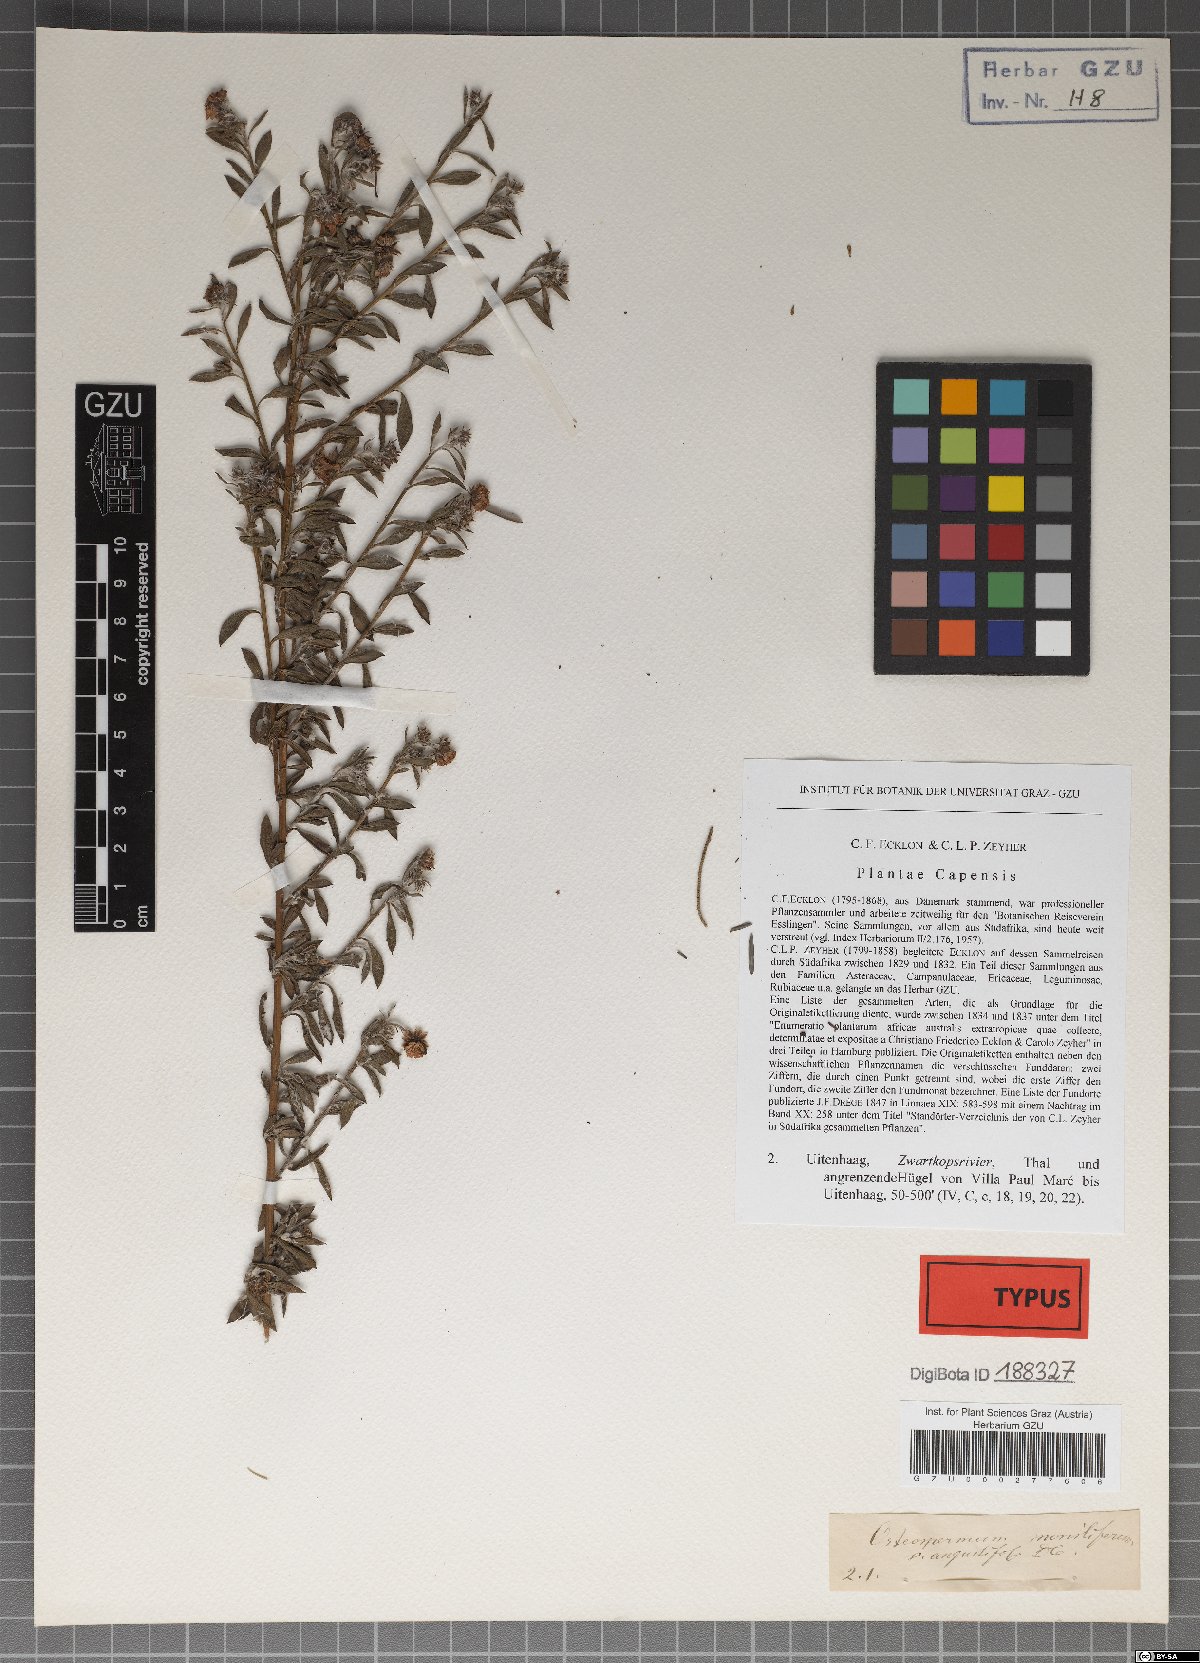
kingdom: Plantae
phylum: Tracheophyta
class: Magnoliopsida
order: Asterales
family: Asteraceae
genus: Osteospermum
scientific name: Osteospermum incanum
